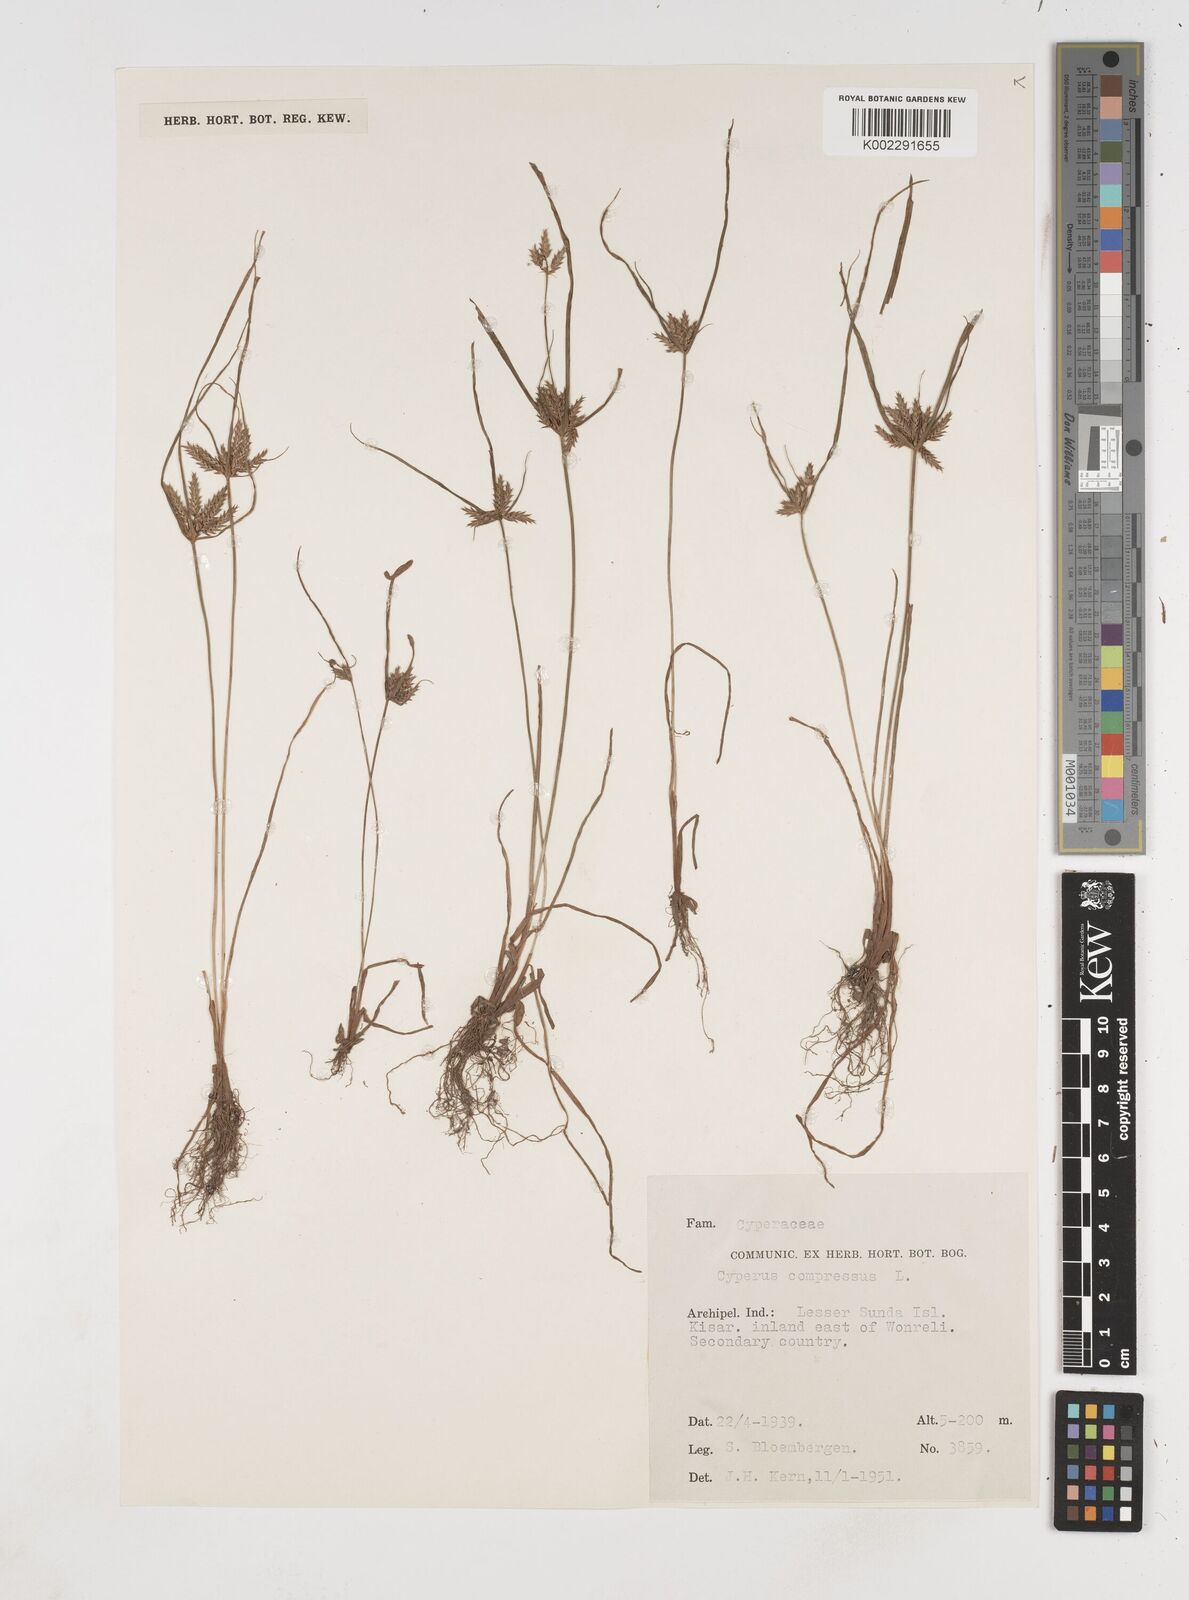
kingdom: Plantae
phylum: Tracheophyta
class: Liliopsida
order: Poales
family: Cyperaceae
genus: Cyperus
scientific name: Cyperus compressus
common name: Poorland flatsedge
